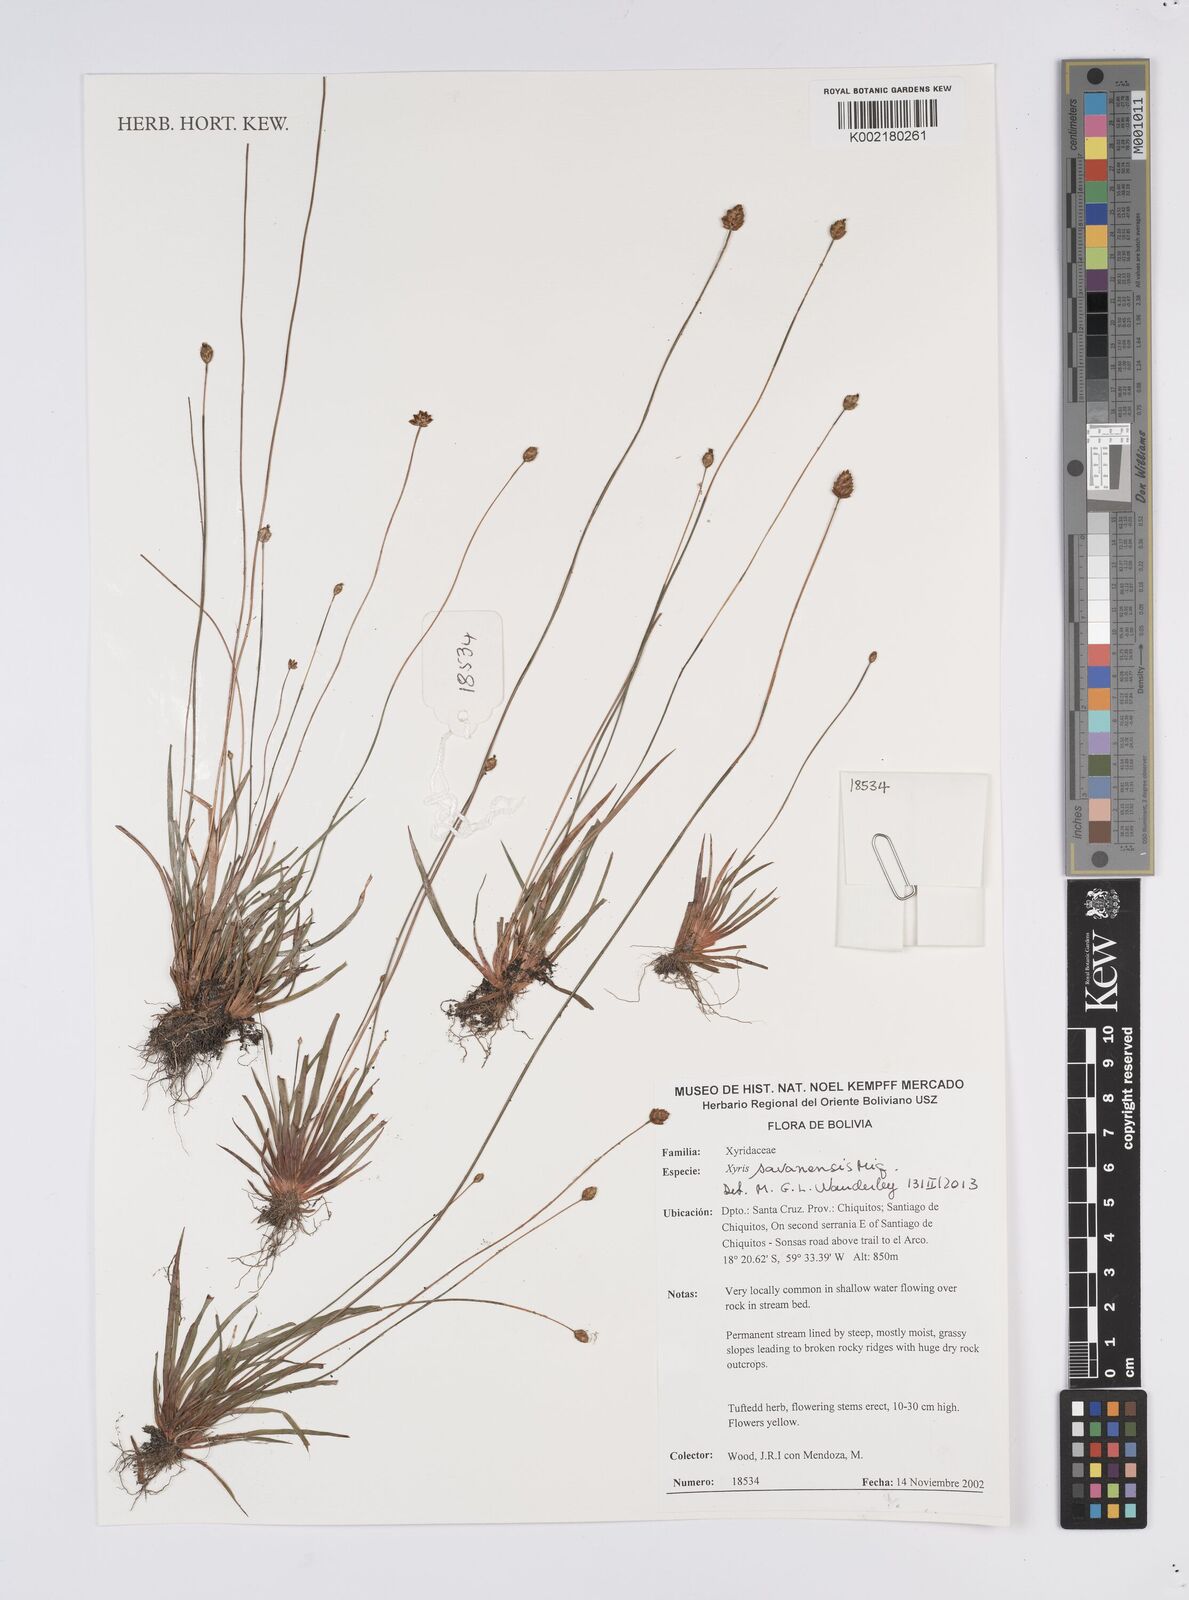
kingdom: Plantae
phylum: Tracheophyta
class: Liliopsida
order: Poales
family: Xyridaceae
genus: Xyris
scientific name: Xyris savanensis
